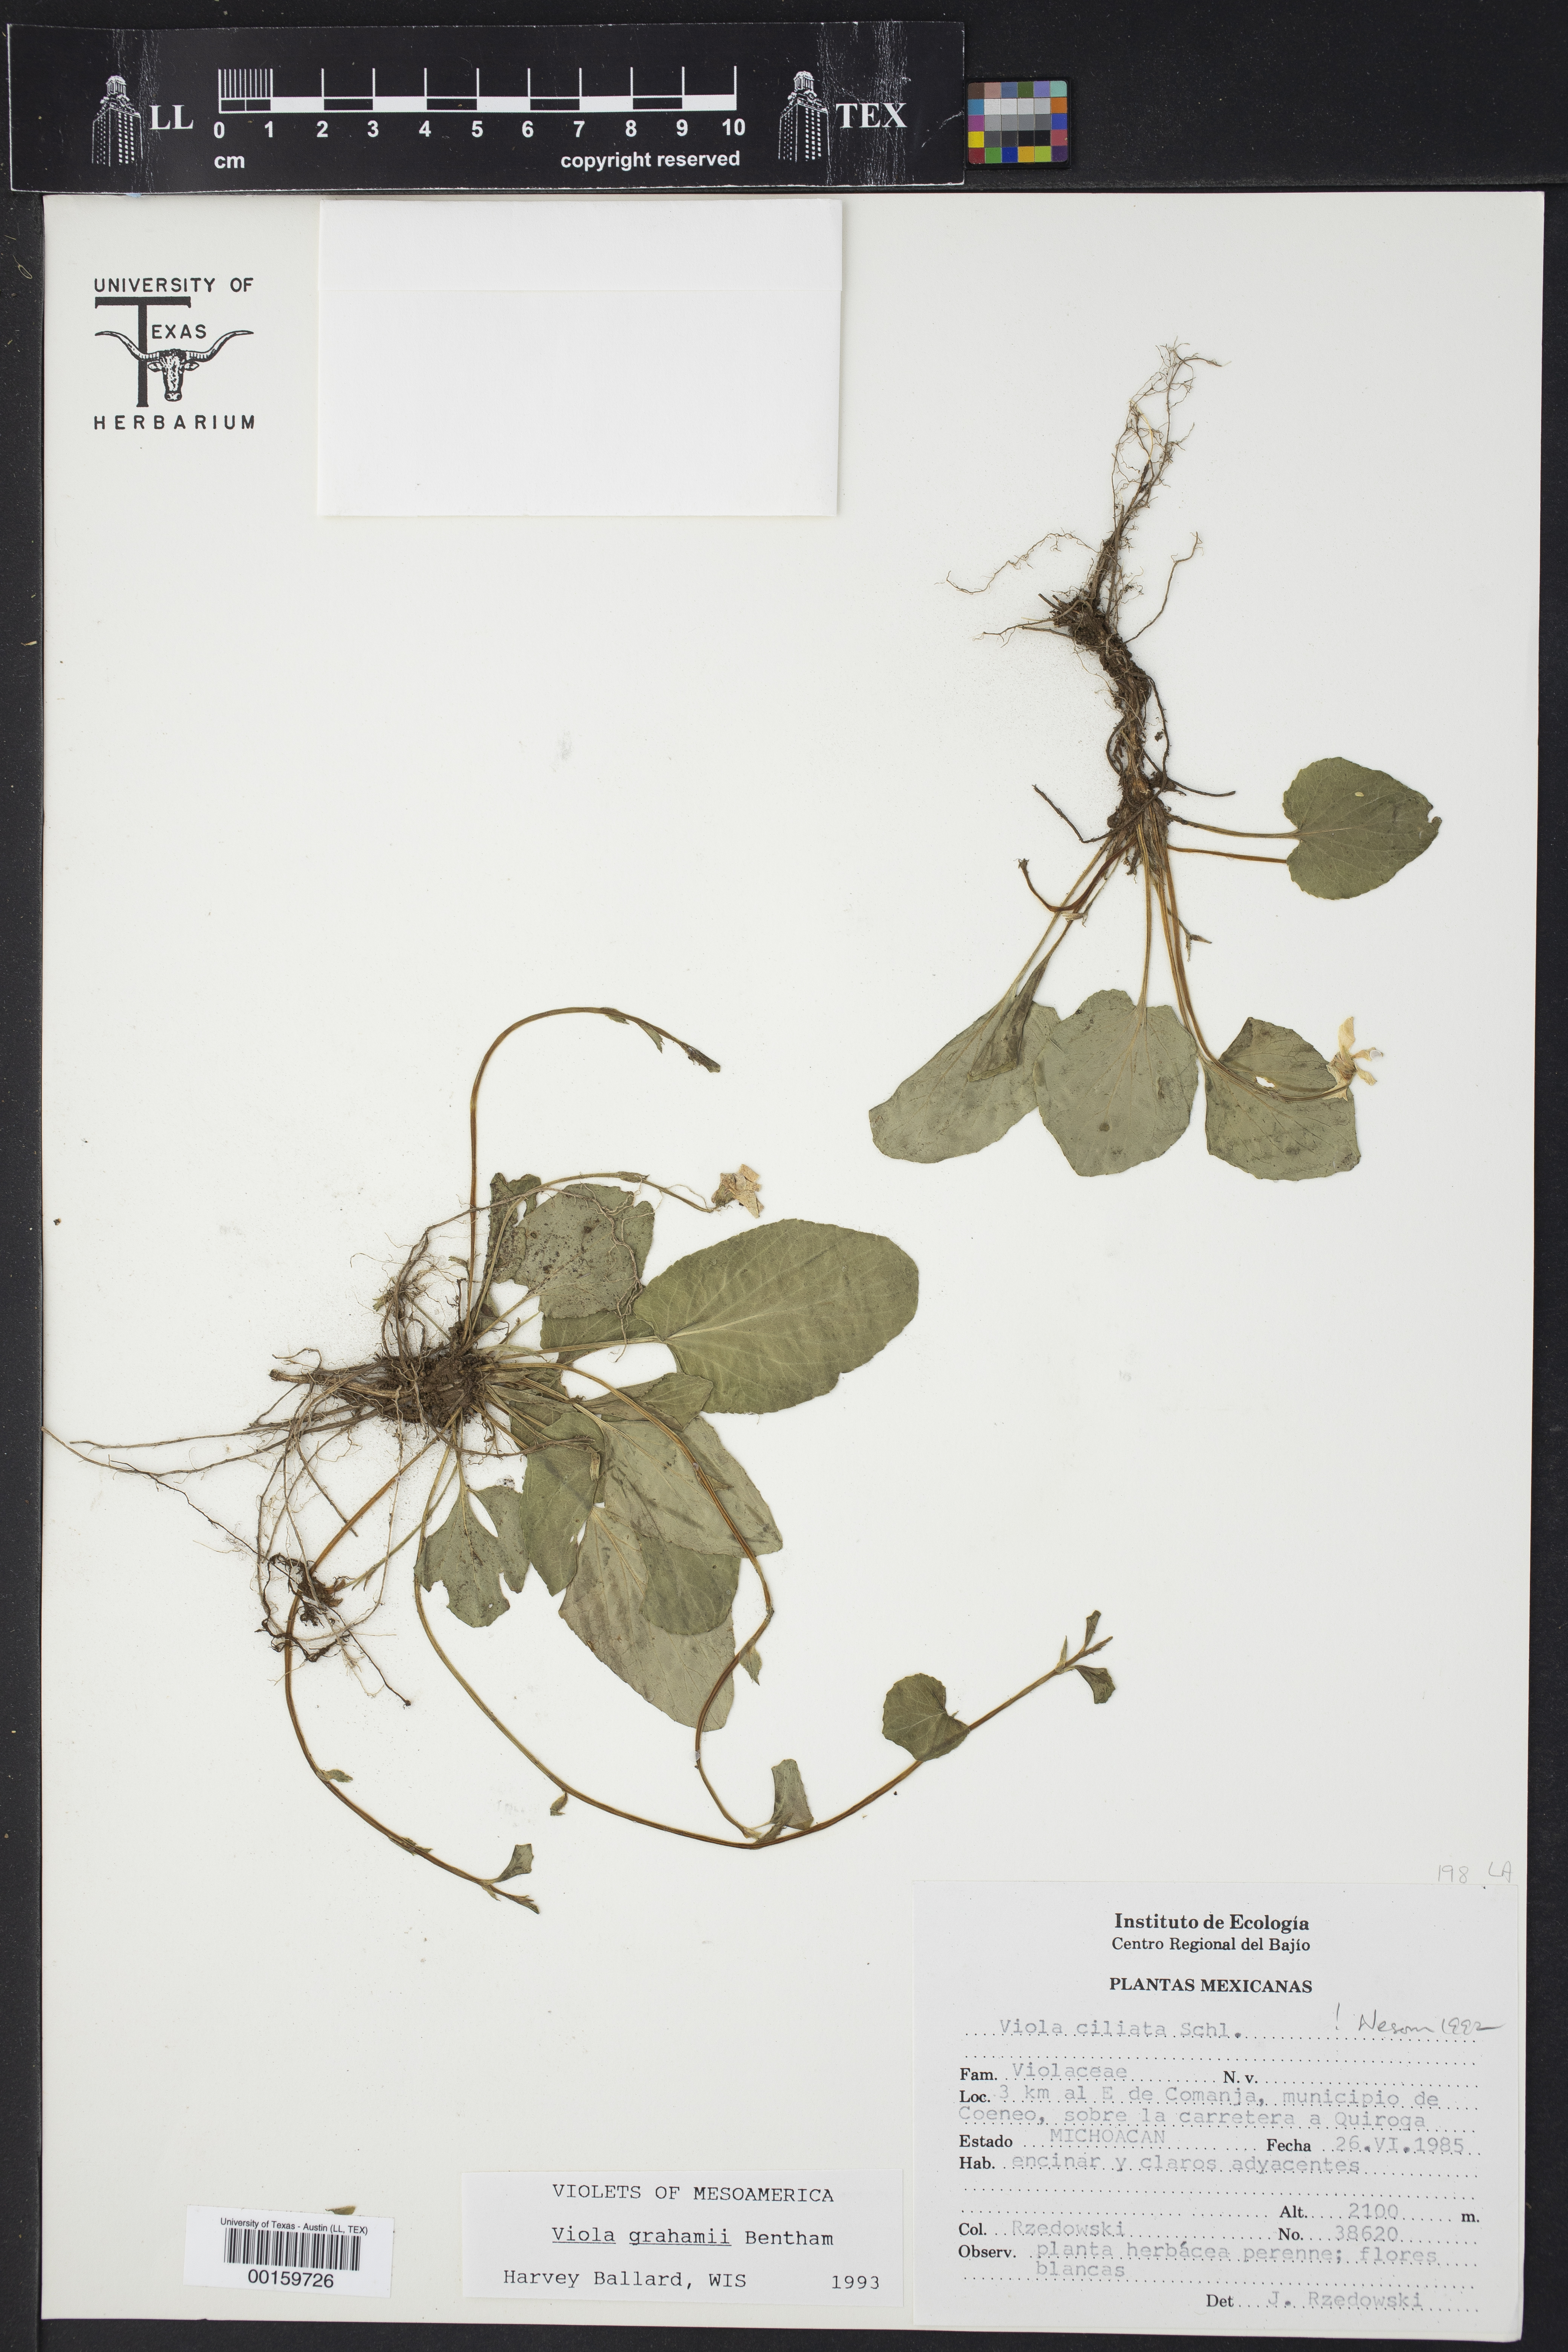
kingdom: Plantae
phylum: Tracheophyta
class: Magnoliopsida
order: Malpighiales
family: Violaceae
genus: Viola
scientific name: Viola grahamii
